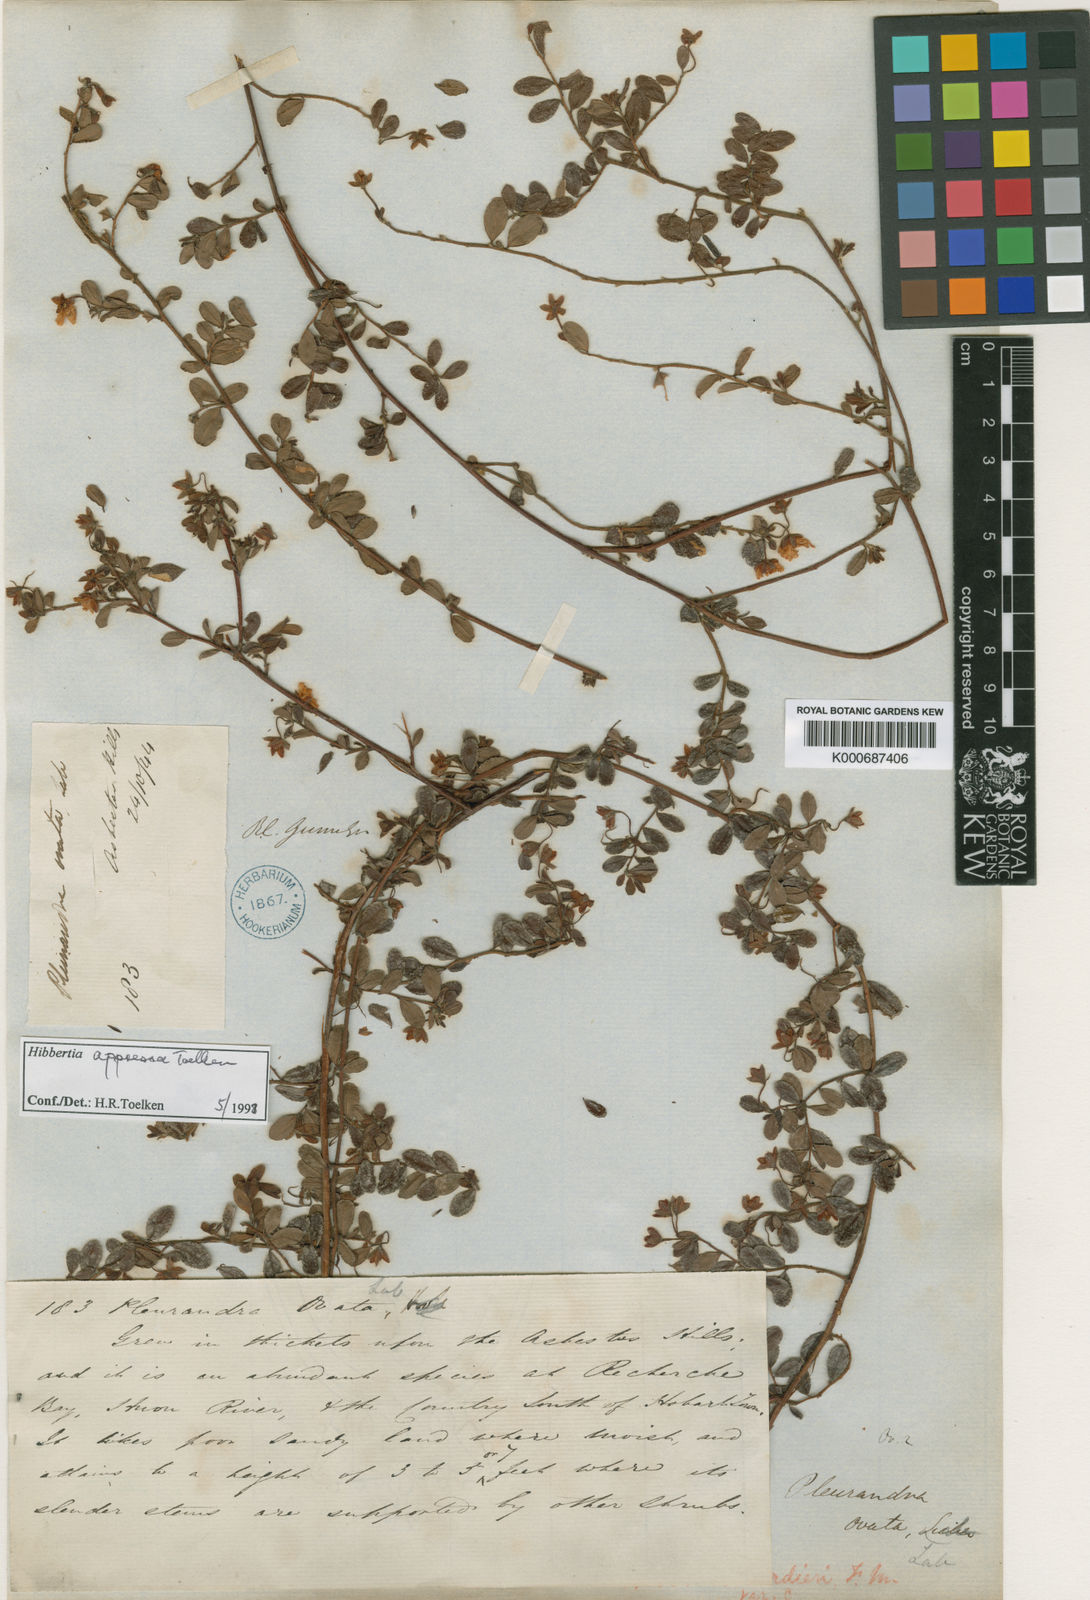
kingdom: Plantae
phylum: Tracheophyta
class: Magnoliopsida
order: Dilleniales
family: Dilleniaceae
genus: Hibbertia
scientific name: Hibbertia aspera
